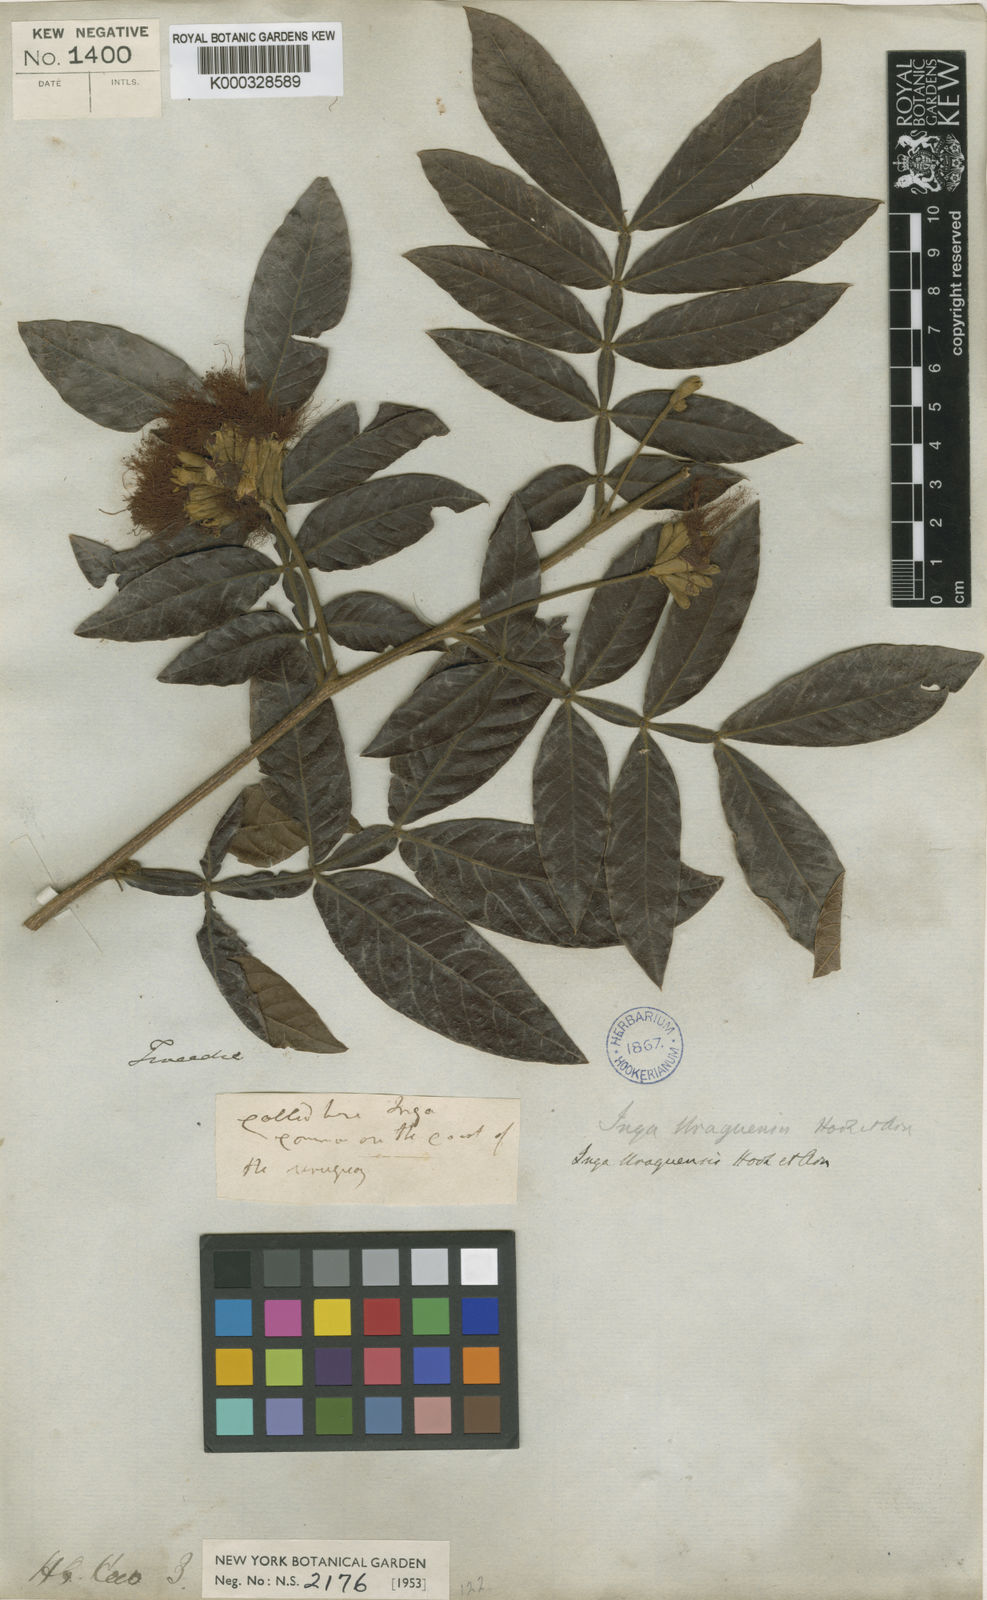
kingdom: Plantae
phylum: Tracheophyta
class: Magnoliopsida
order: Fabales
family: Fabaceae
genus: Inga
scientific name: Inga affinis
